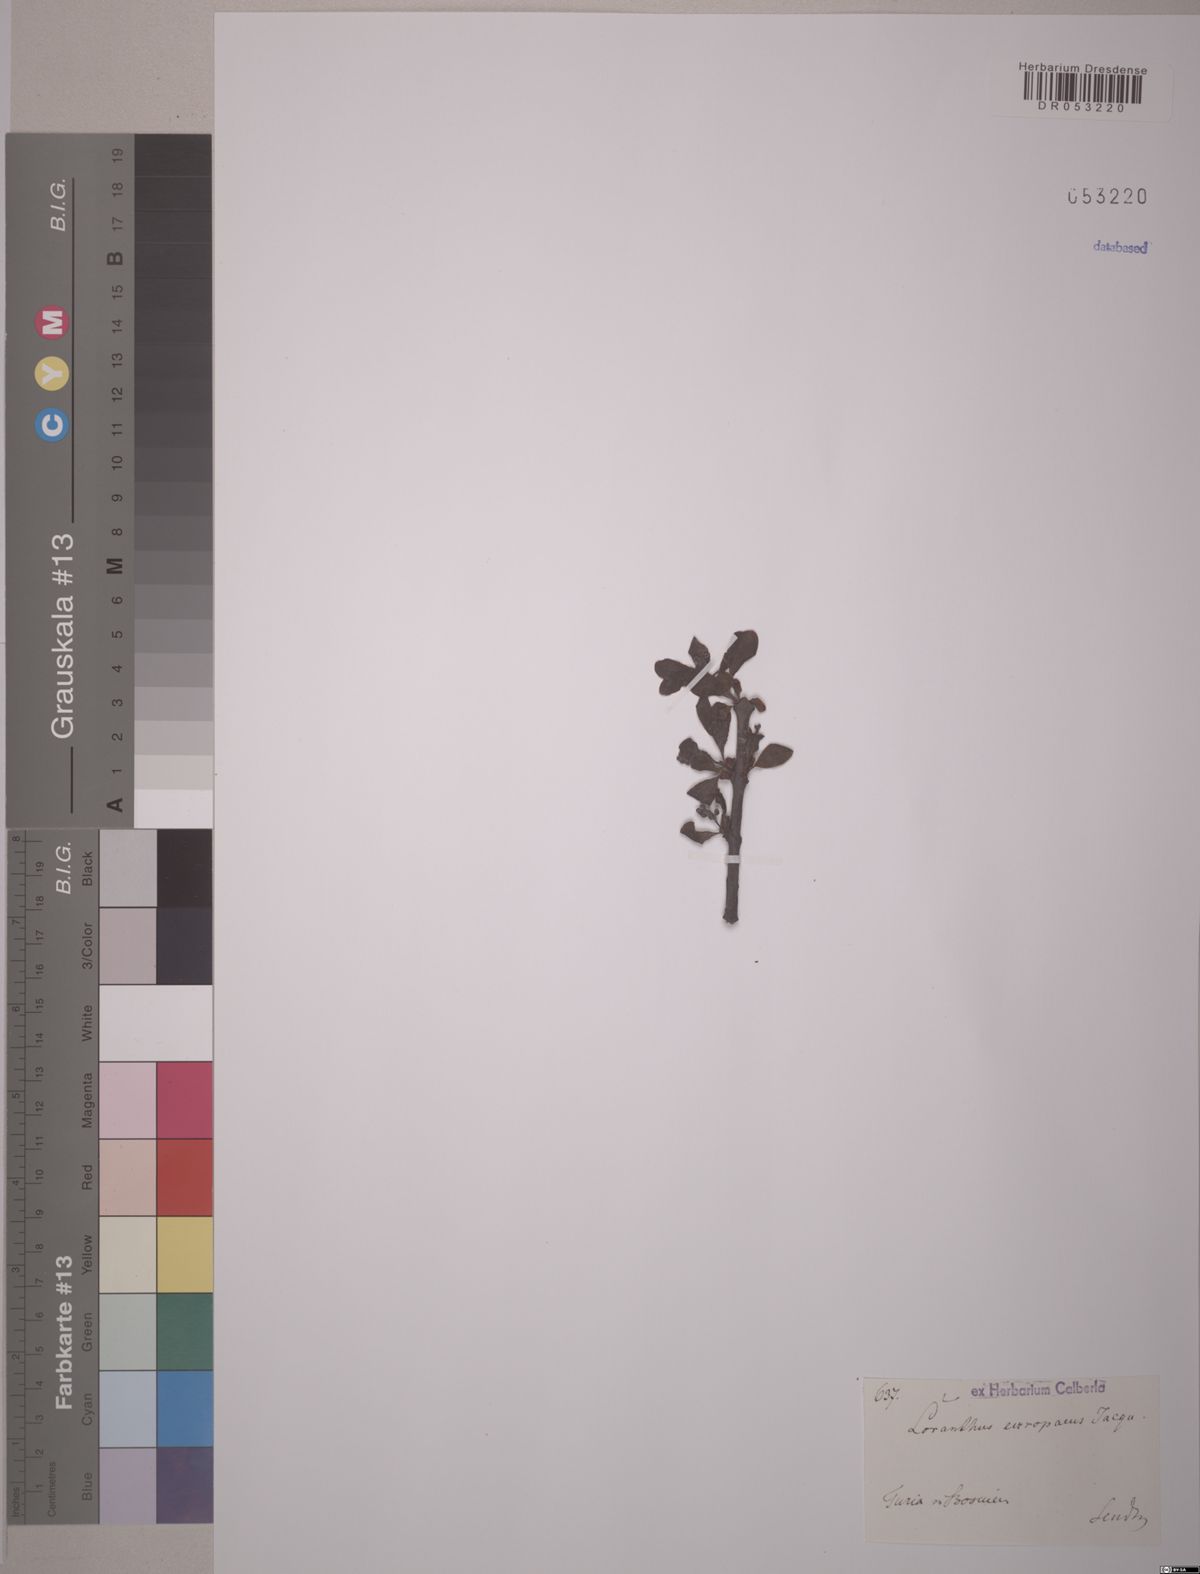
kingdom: Plantae
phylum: Tracheophyta
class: Magnoliopsida
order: Santalales
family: Loranthaceae
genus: Loranthus
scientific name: Loranthus europaeus
